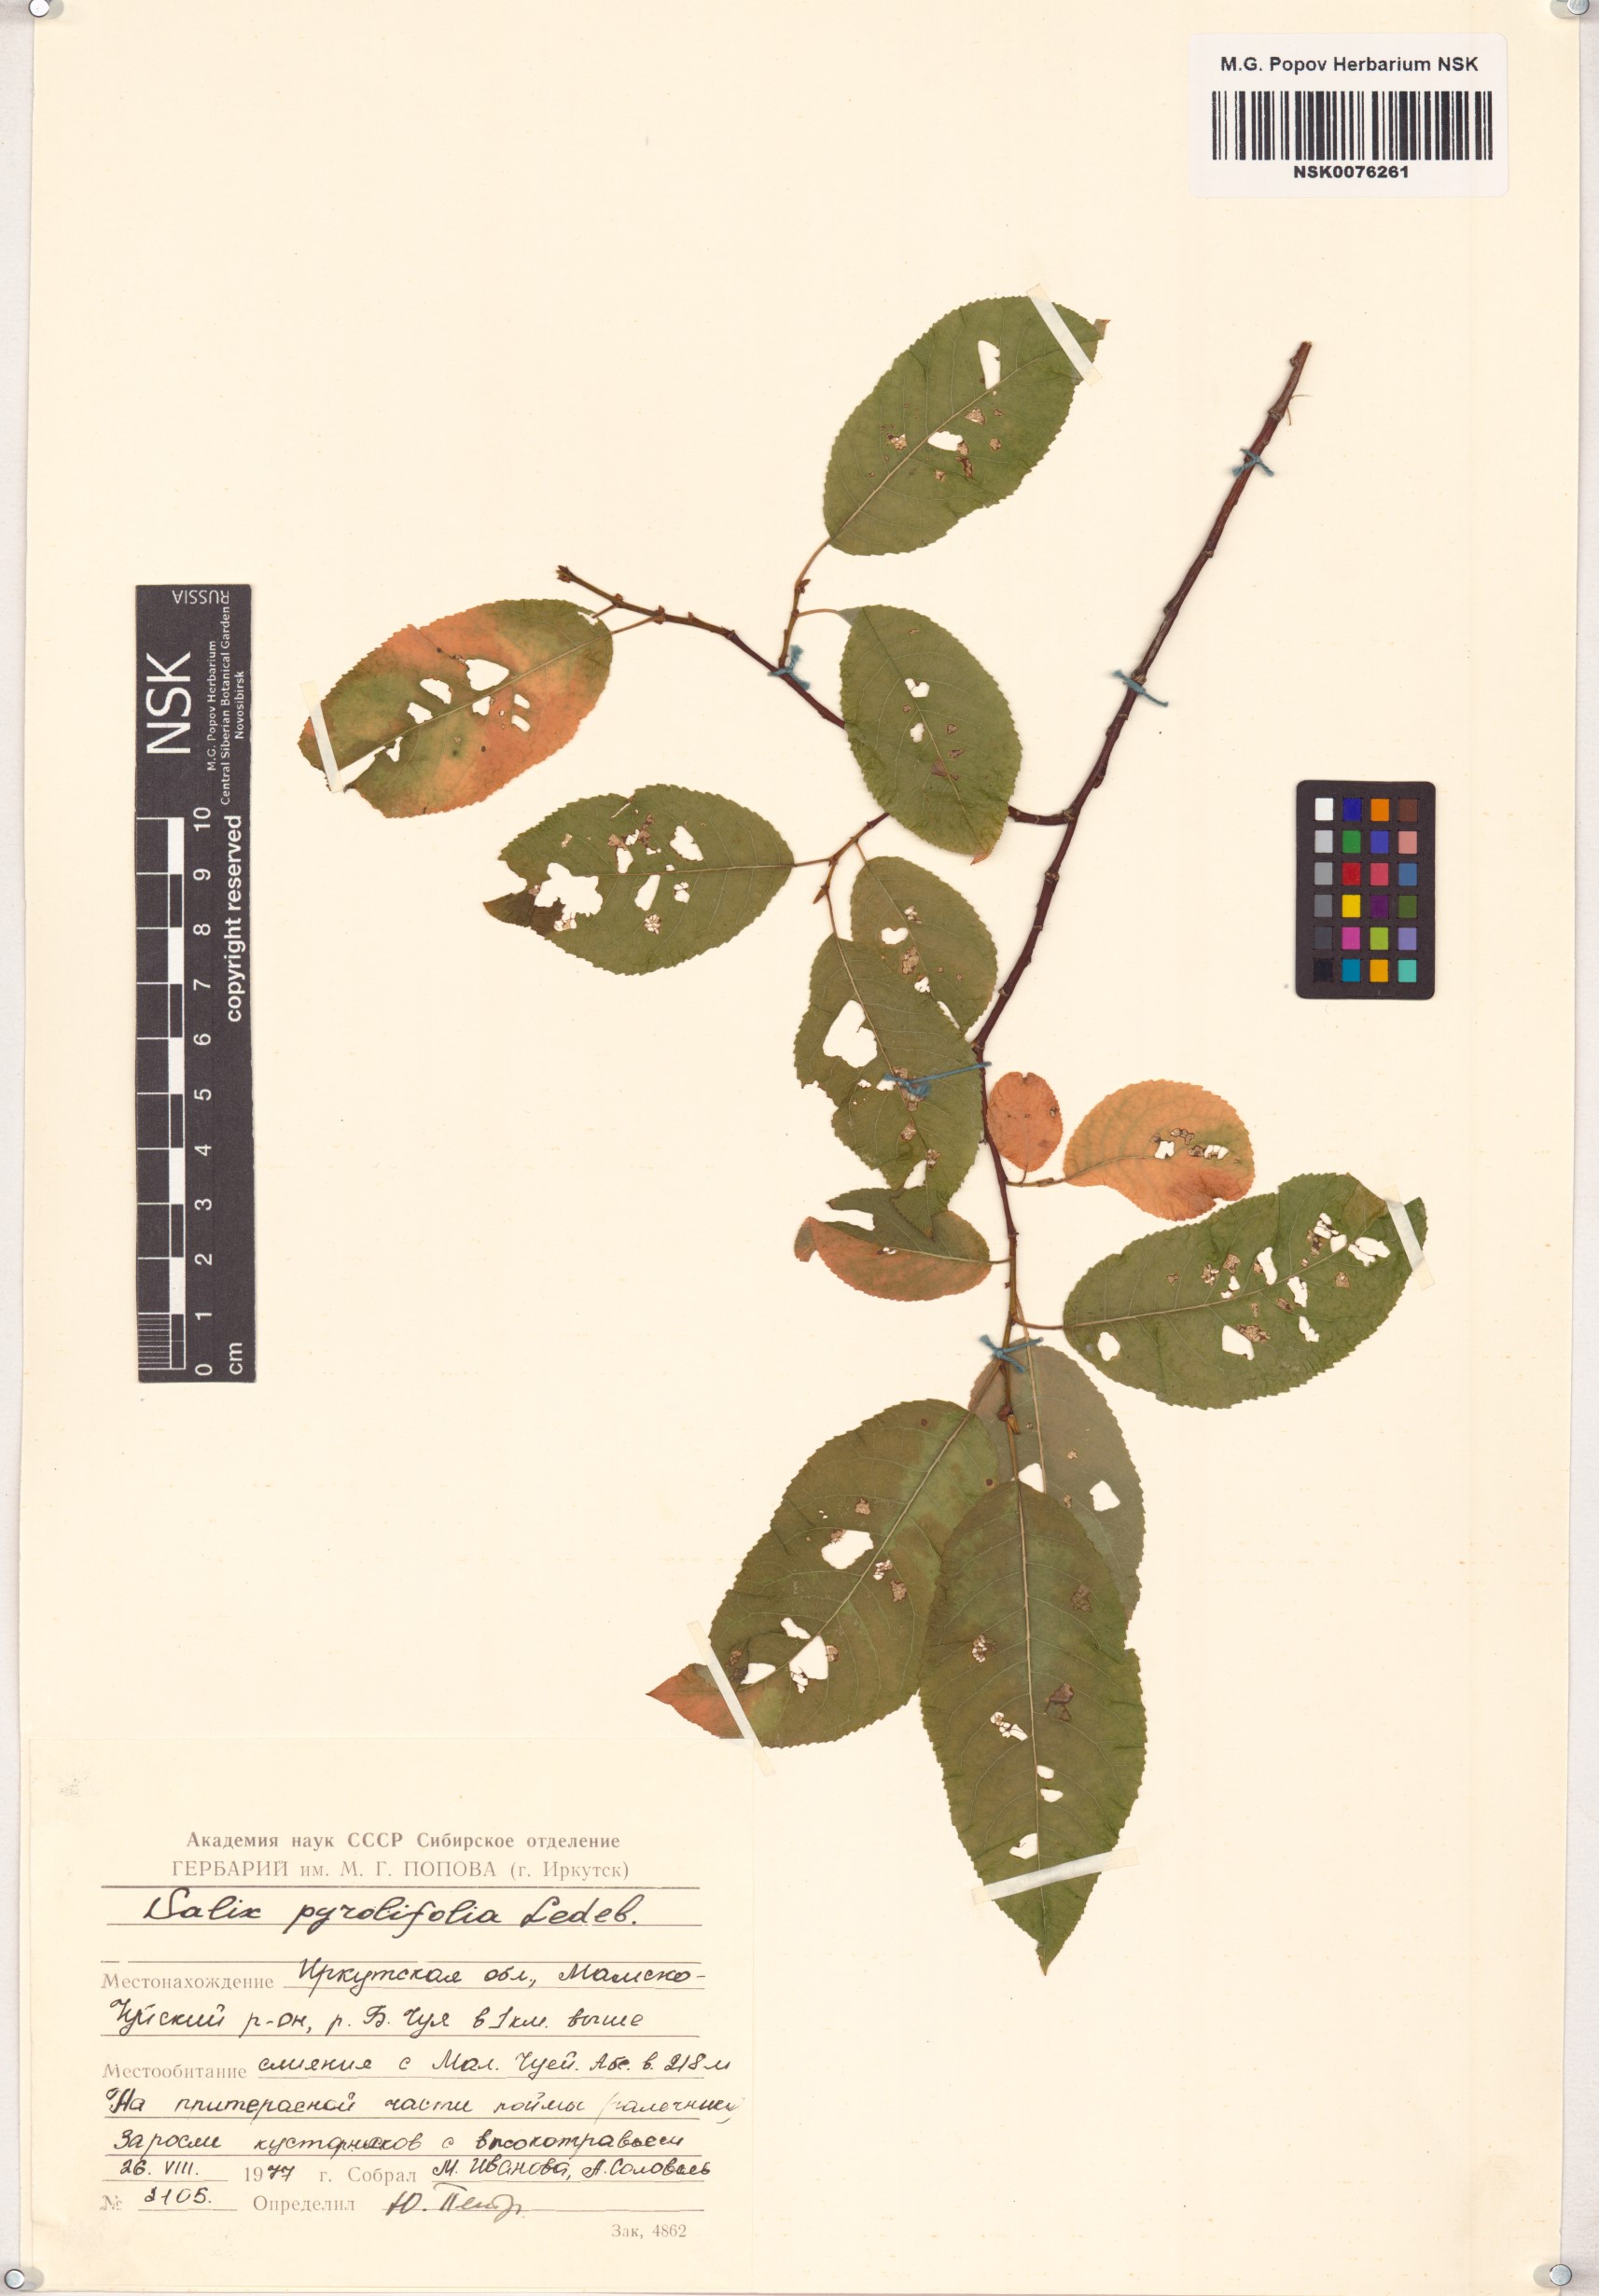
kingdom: Plantae
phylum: Tracheophyta
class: Magnoliopsida
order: Malpighiales
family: Salicaceae
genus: Salix
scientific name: Salix pyrolifolia
